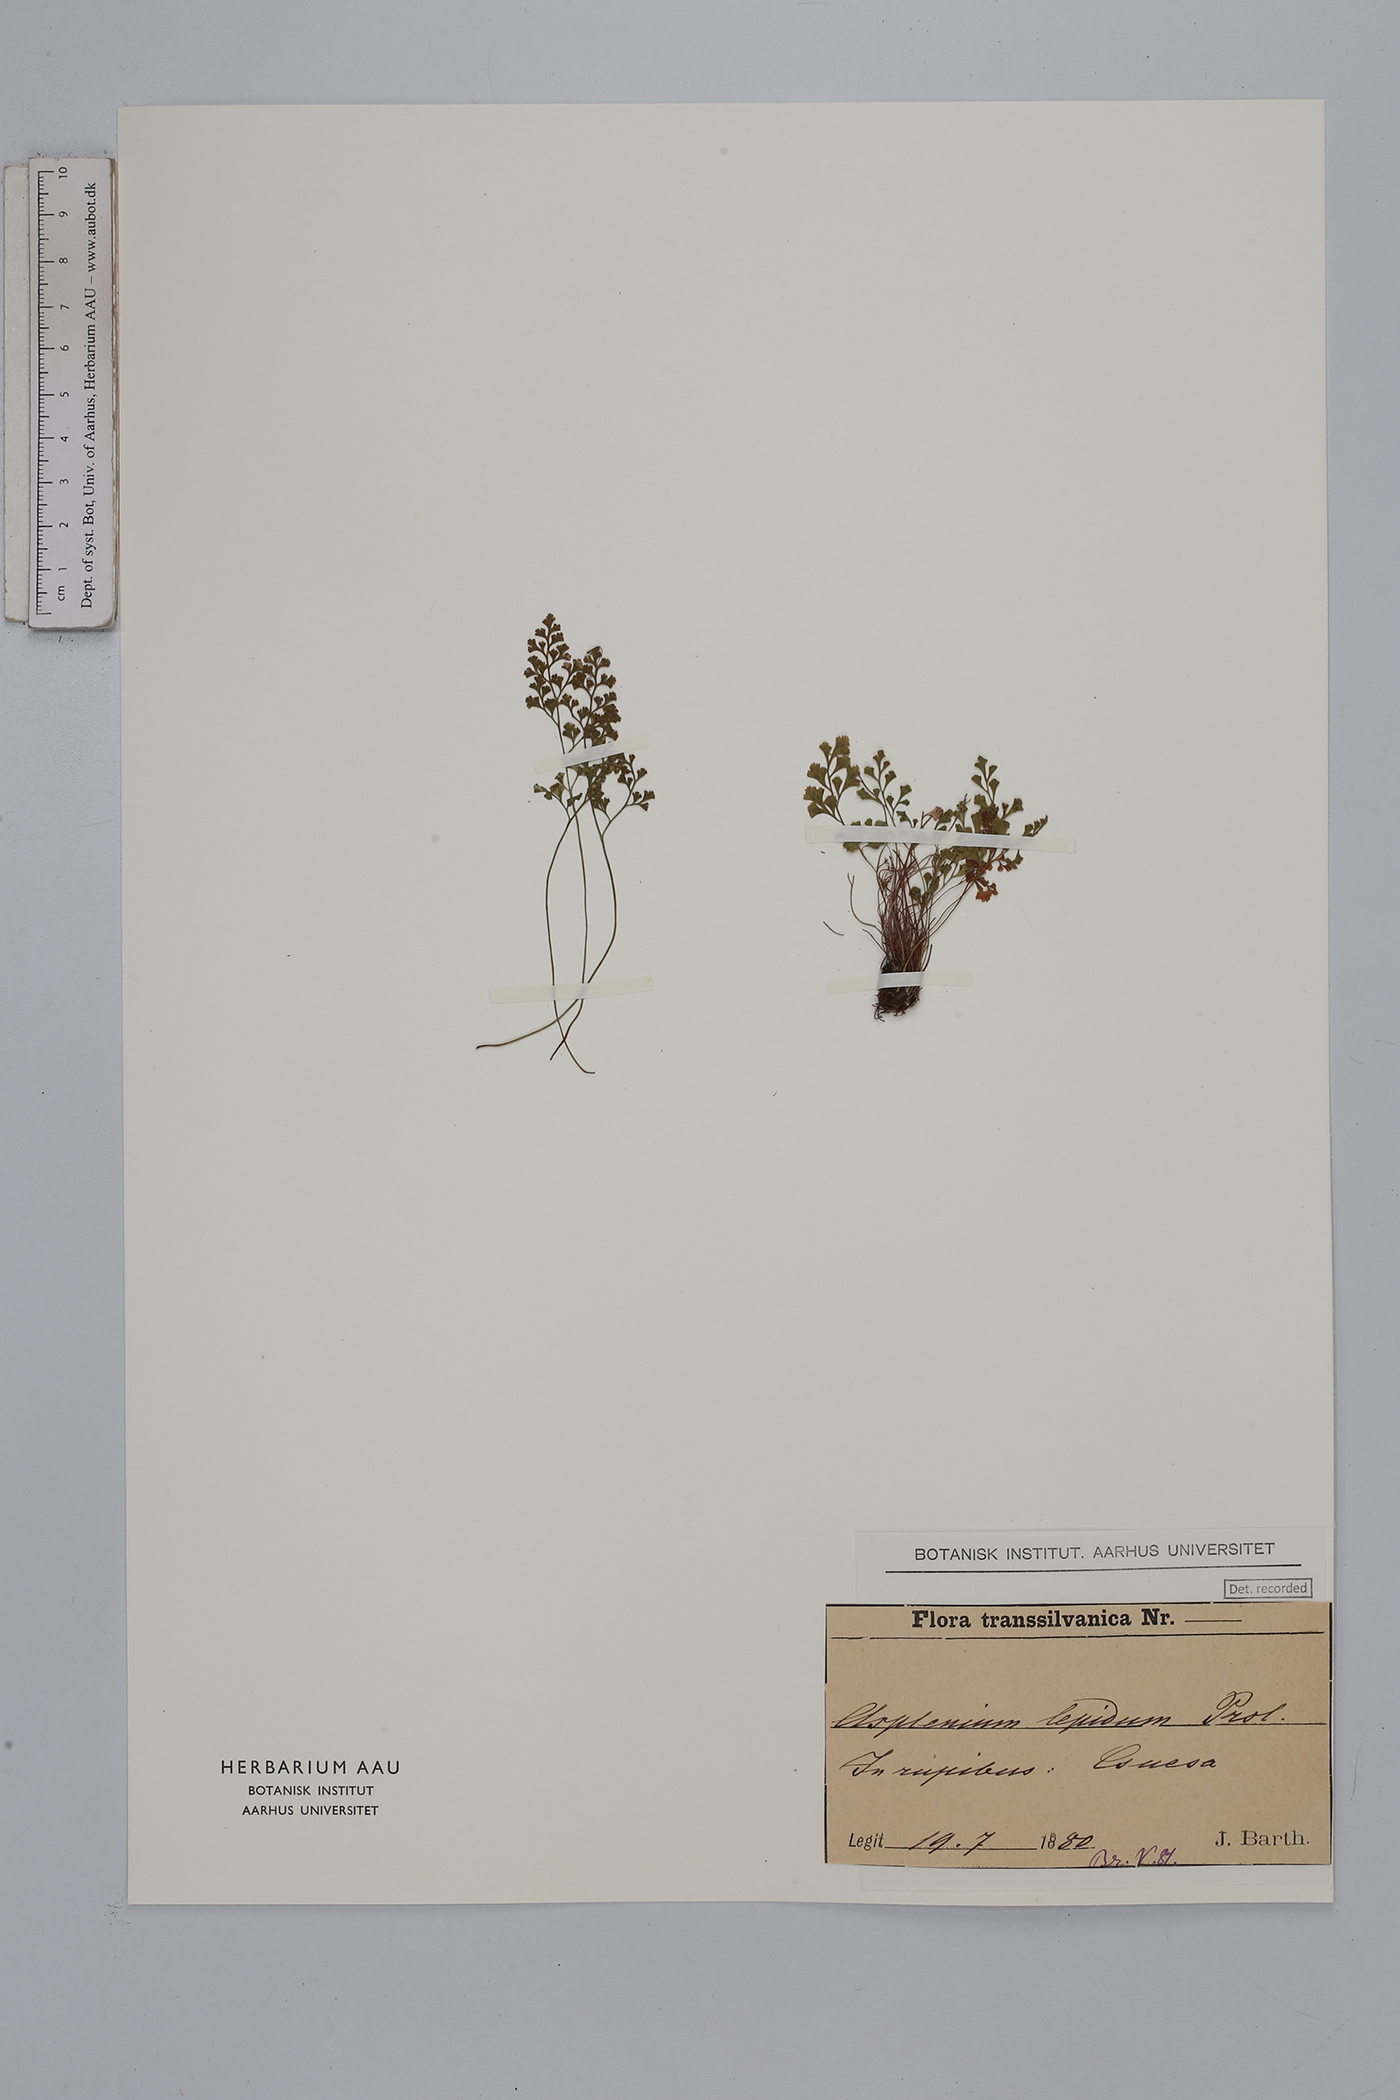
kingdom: Plantae
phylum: Tracheophyta
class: Polypodiopsida
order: Polypodiales
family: Aspleniaceae
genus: Asplenium
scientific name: Asplenium lepidum
